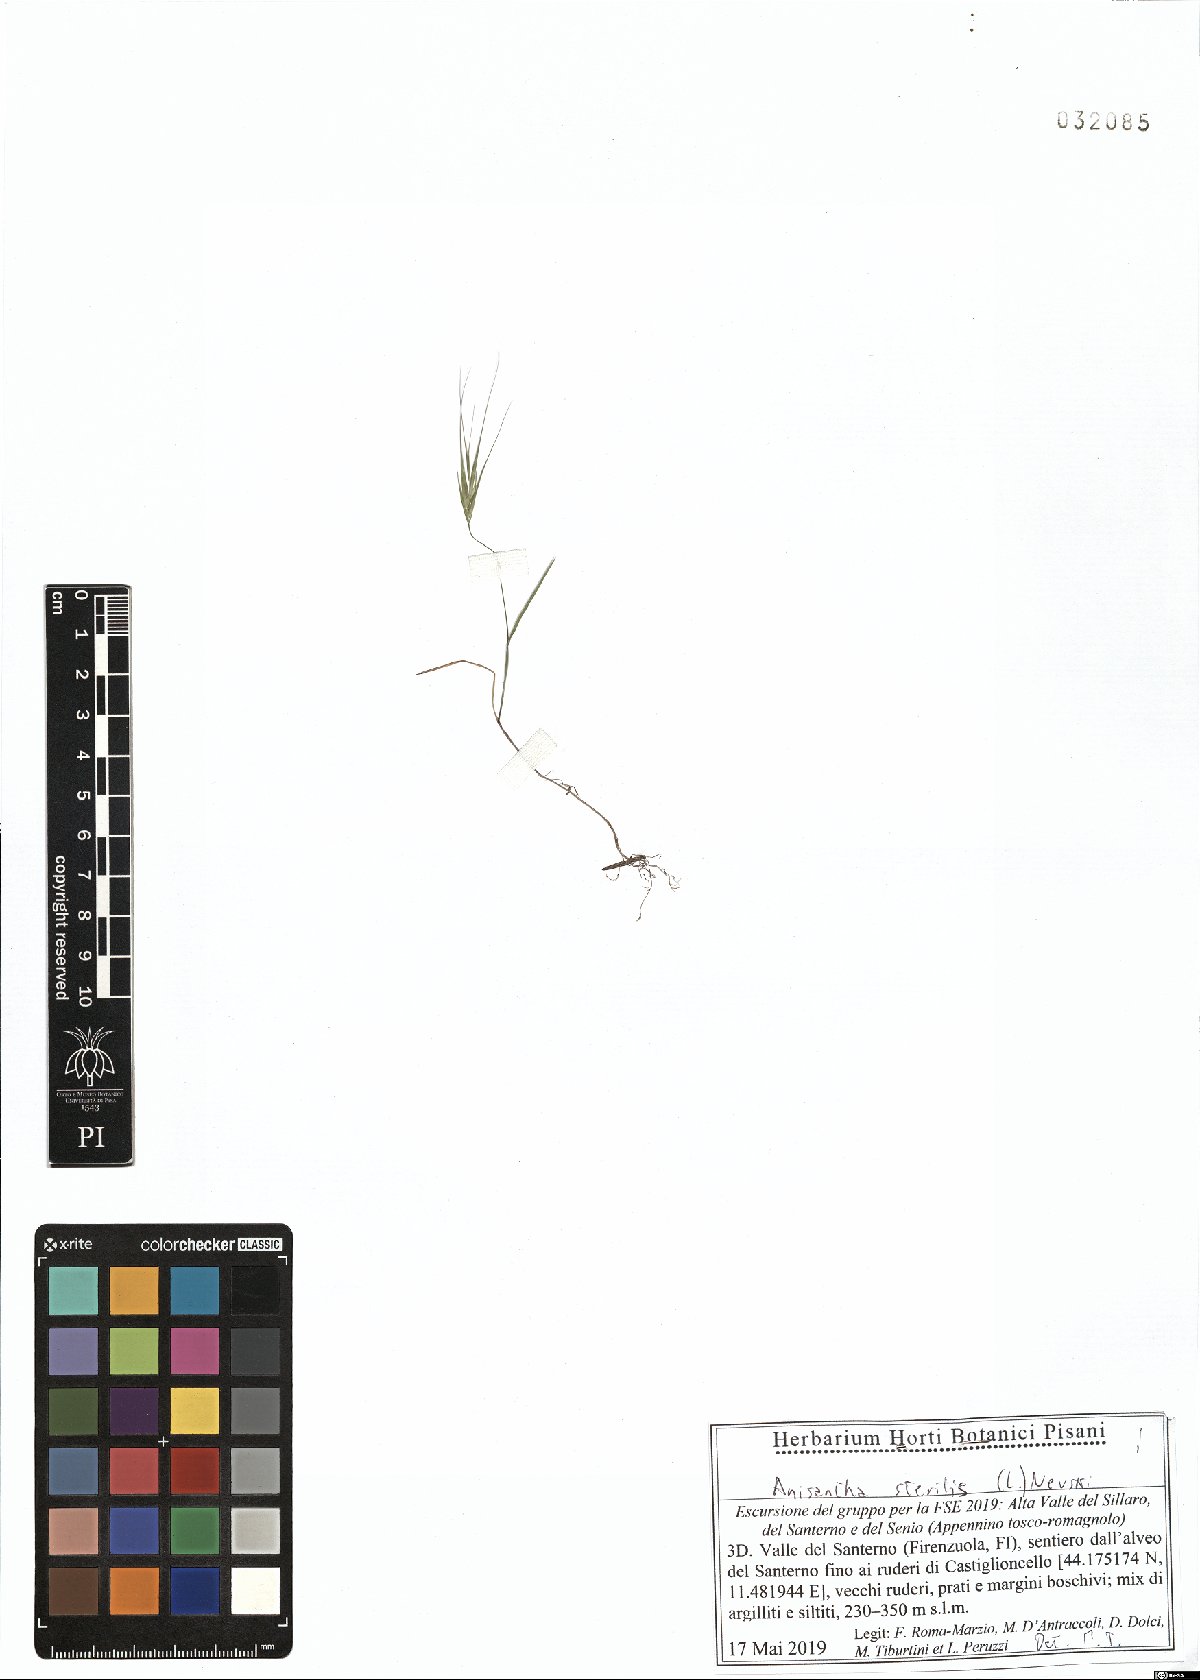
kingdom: Plantae
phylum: Tracheophyta
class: Liliopsida
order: Poales
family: Poaceae
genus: Bromus
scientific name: Bromus sterilis
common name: Poverty brome
